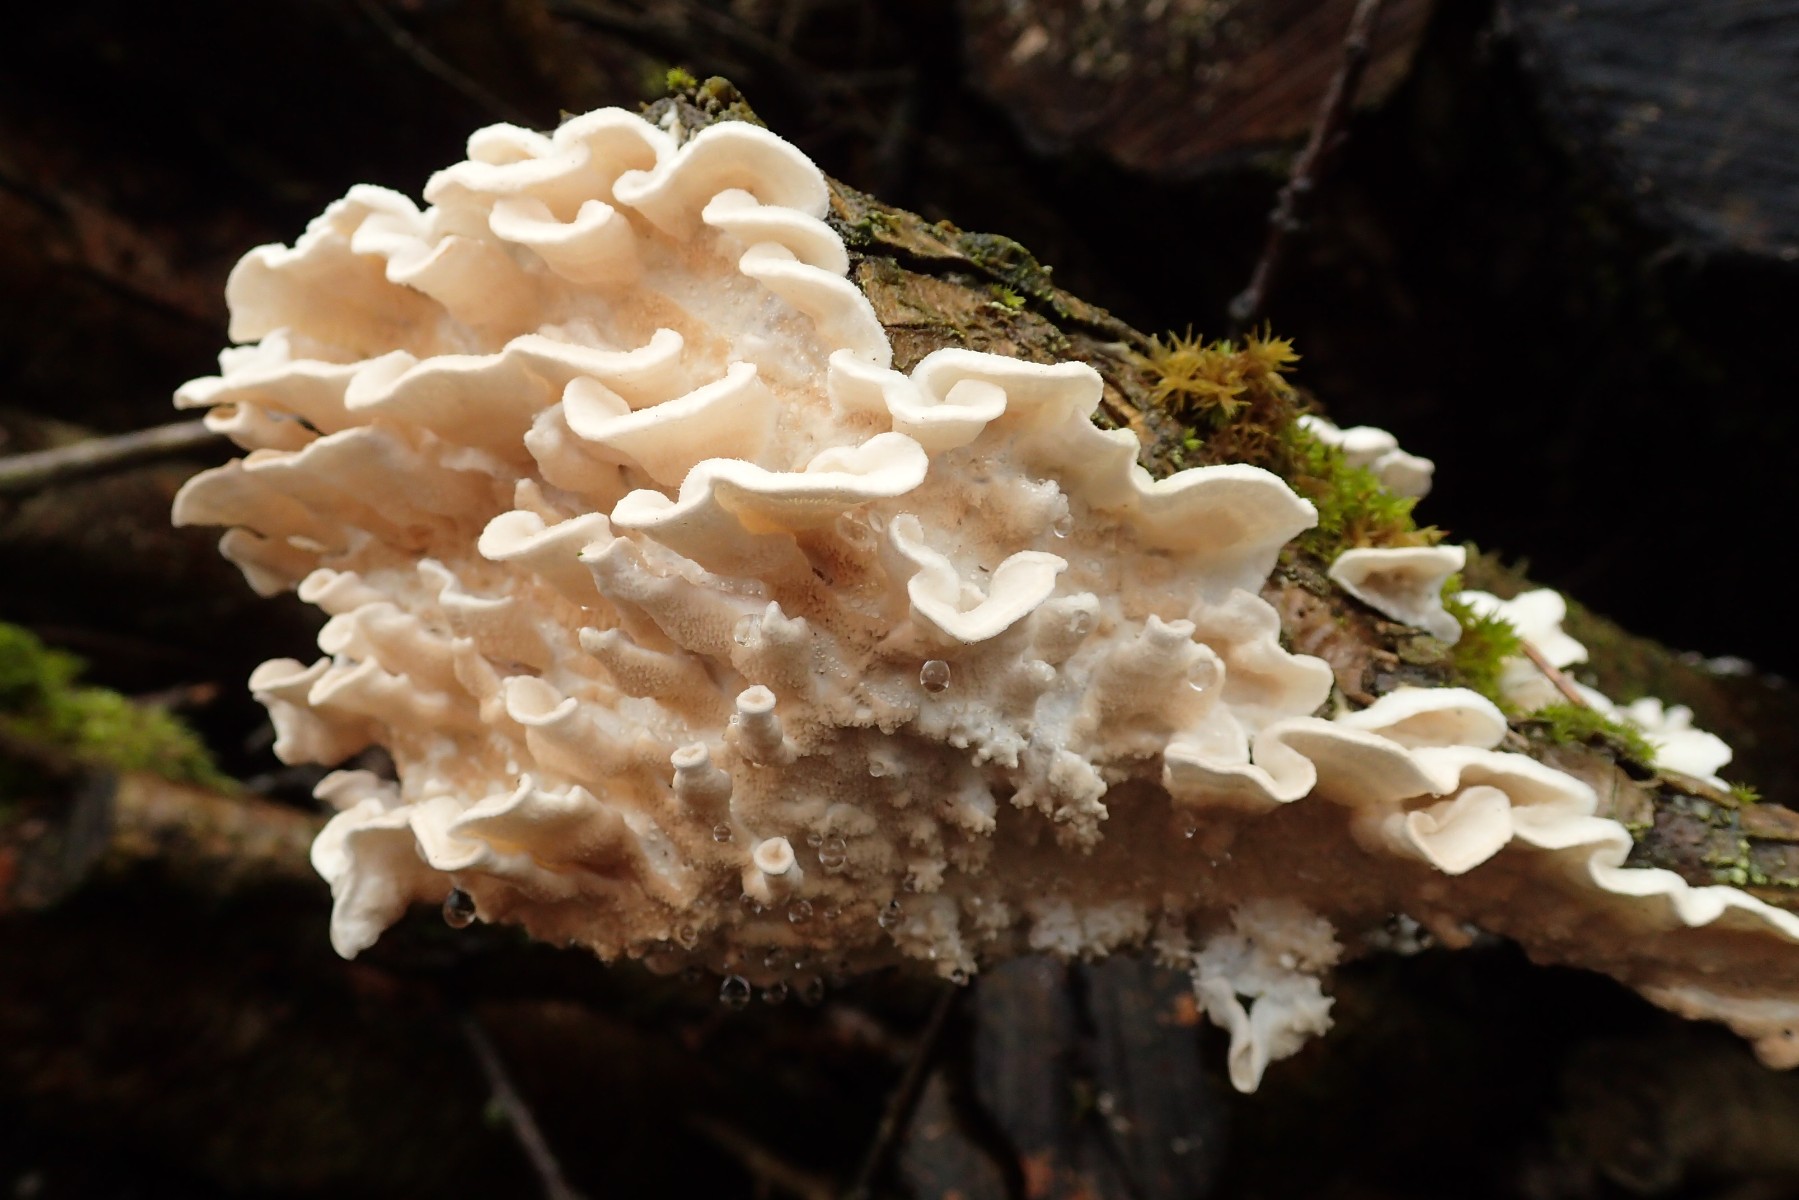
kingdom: Fungi
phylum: Basidiomycota
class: Agaricomycetes
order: Polyporales
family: Irpicaceae
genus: Byssomerulius
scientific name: Byssomerulius corium
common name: læder-åresvamp
